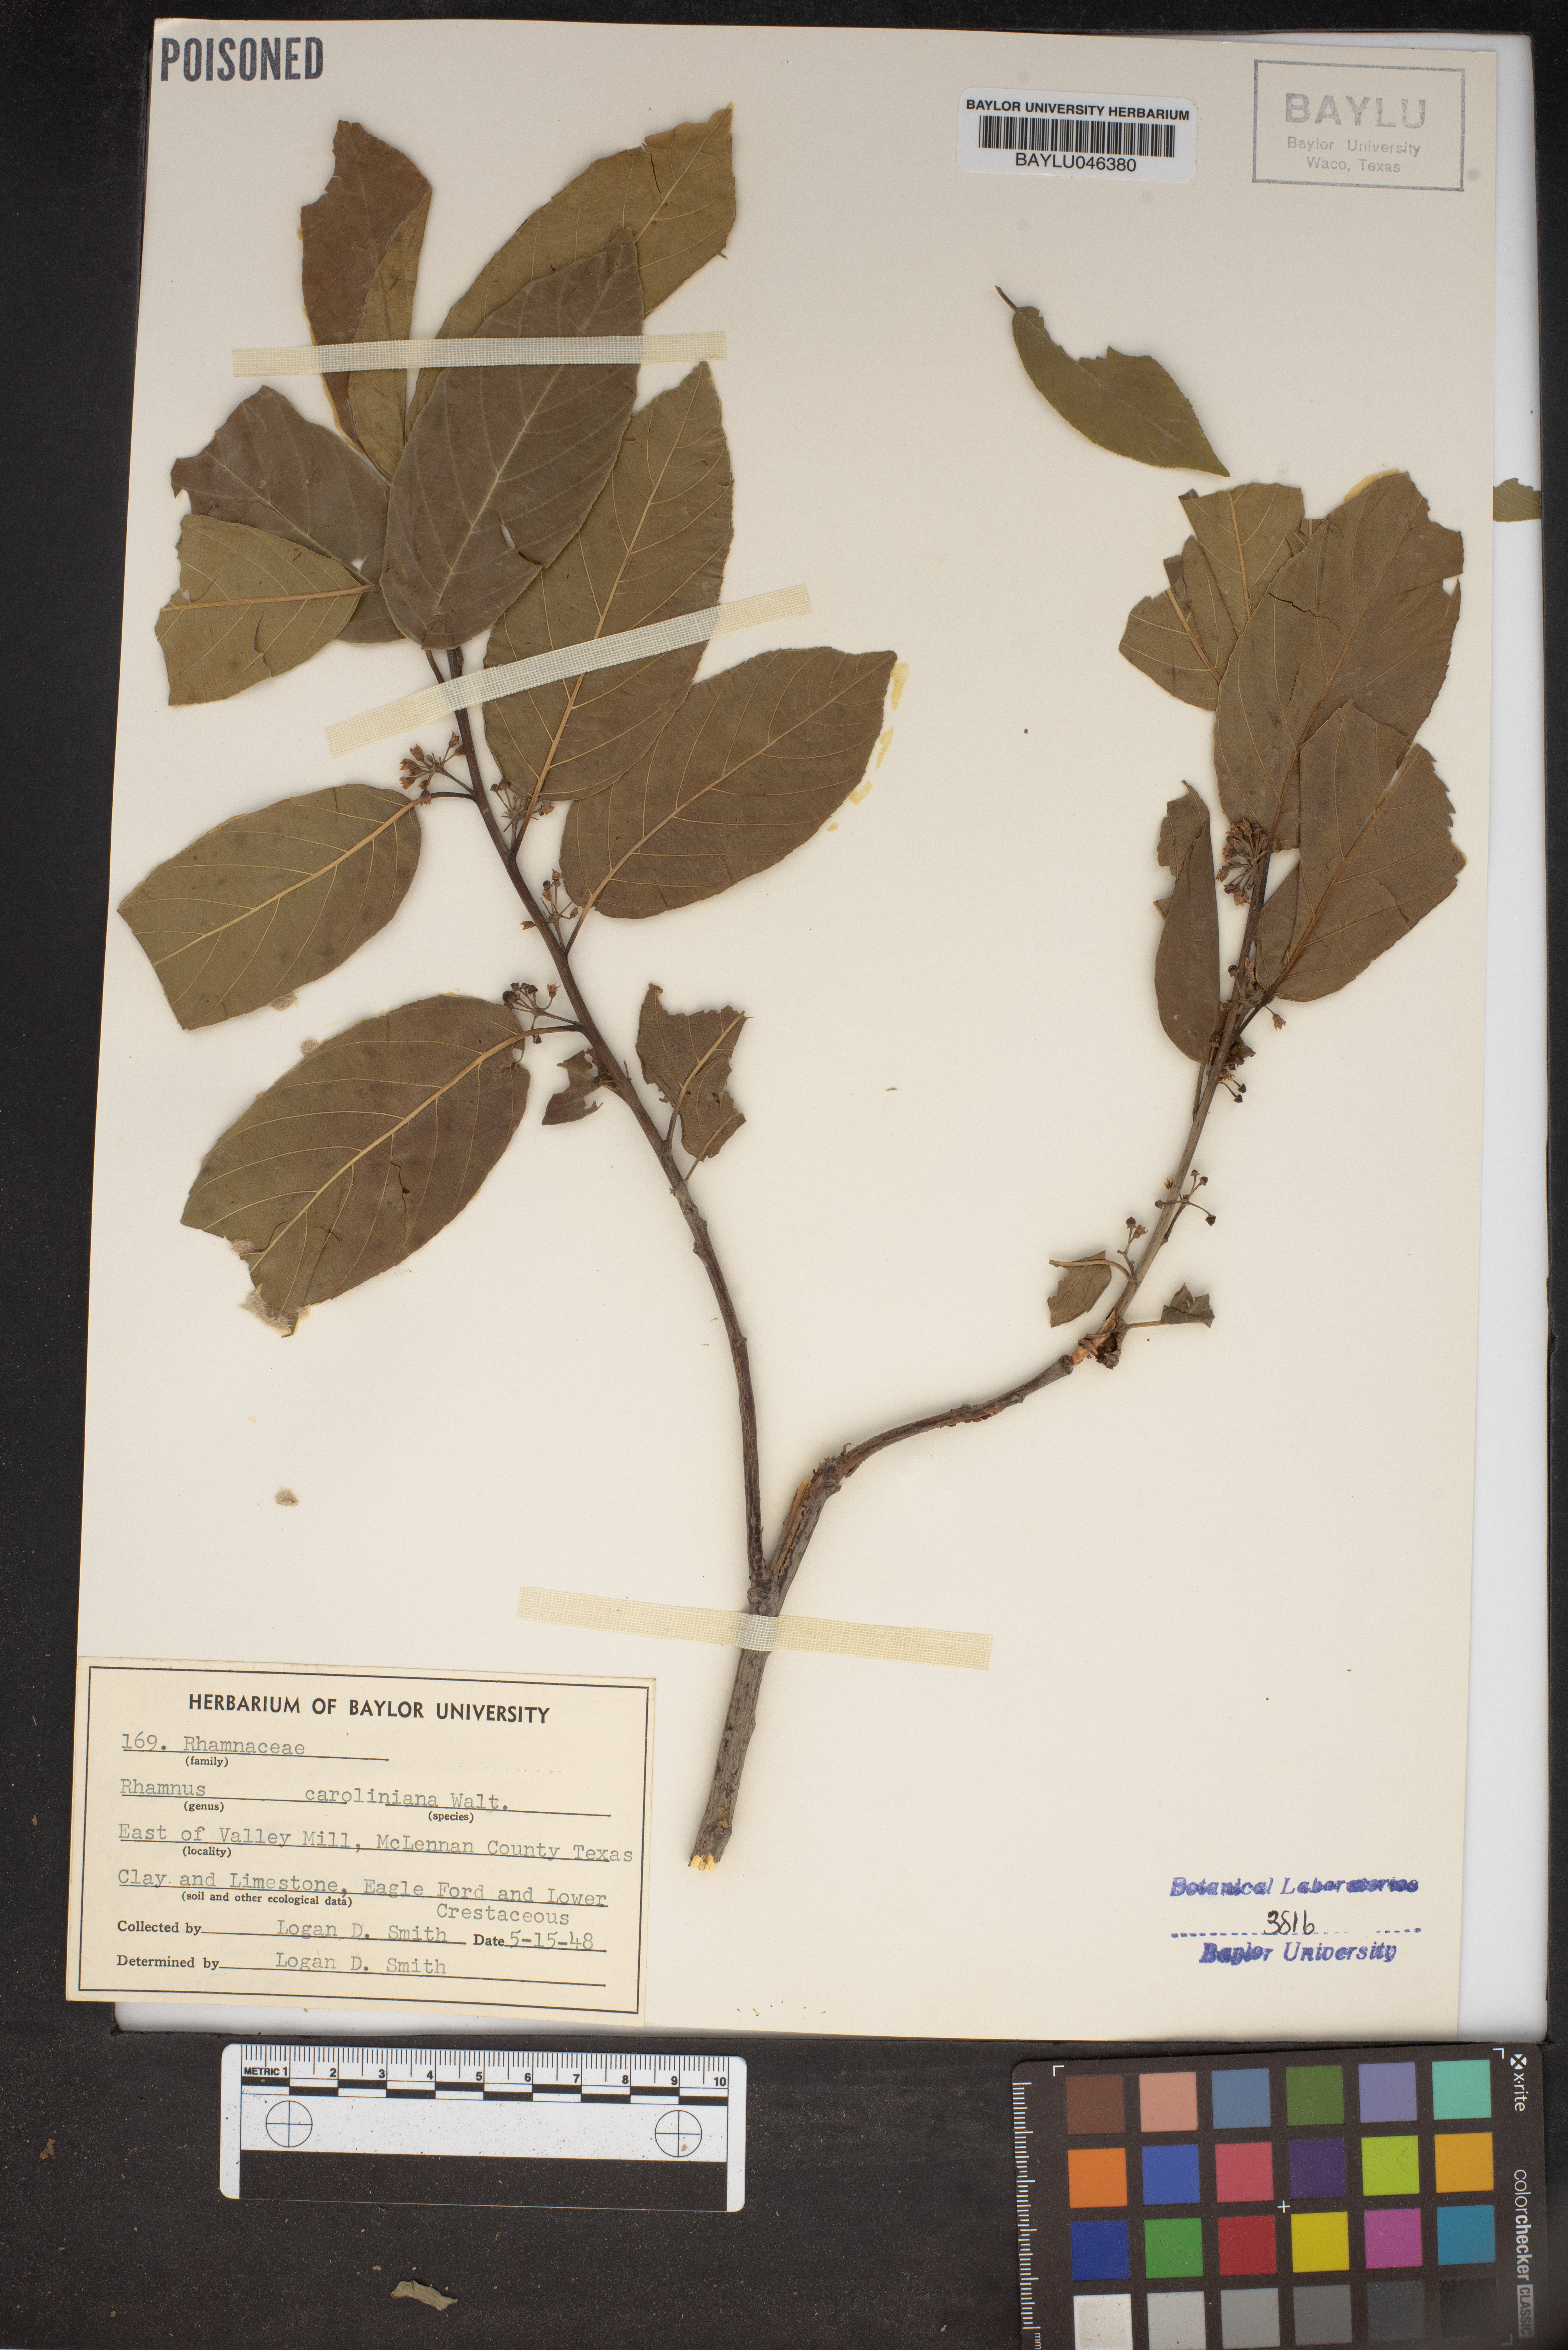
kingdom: Plantae
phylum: Tracheophyta
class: Magnoliopsida
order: Rosales
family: Rhamnaceae
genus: Frangula
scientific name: Frangula caroliniana
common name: Carolina buckthorn
